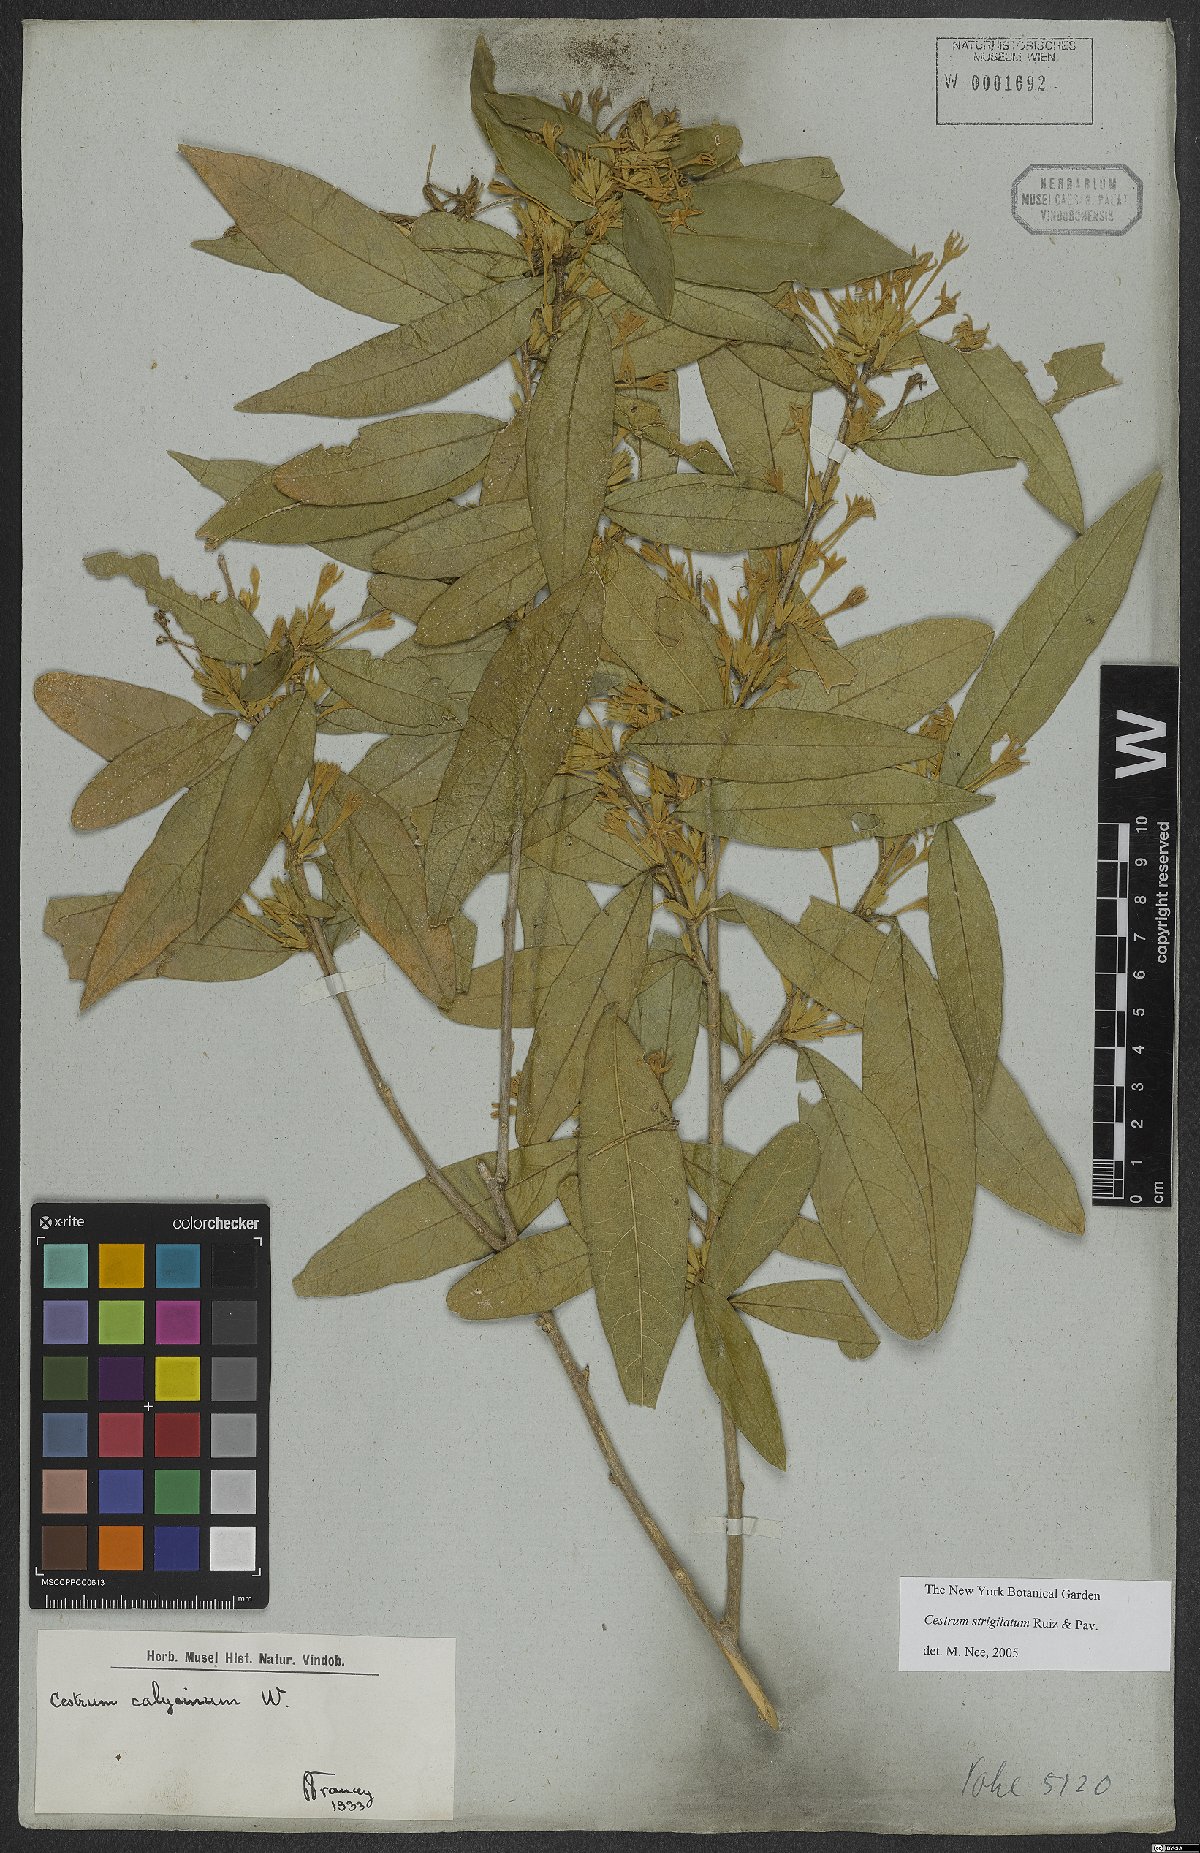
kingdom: Plantae
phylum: Tracheophyta
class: Magnoliopsida
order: Solanales
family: Solanaceae
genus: Cestrum
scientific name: Cestrum strigillatum
